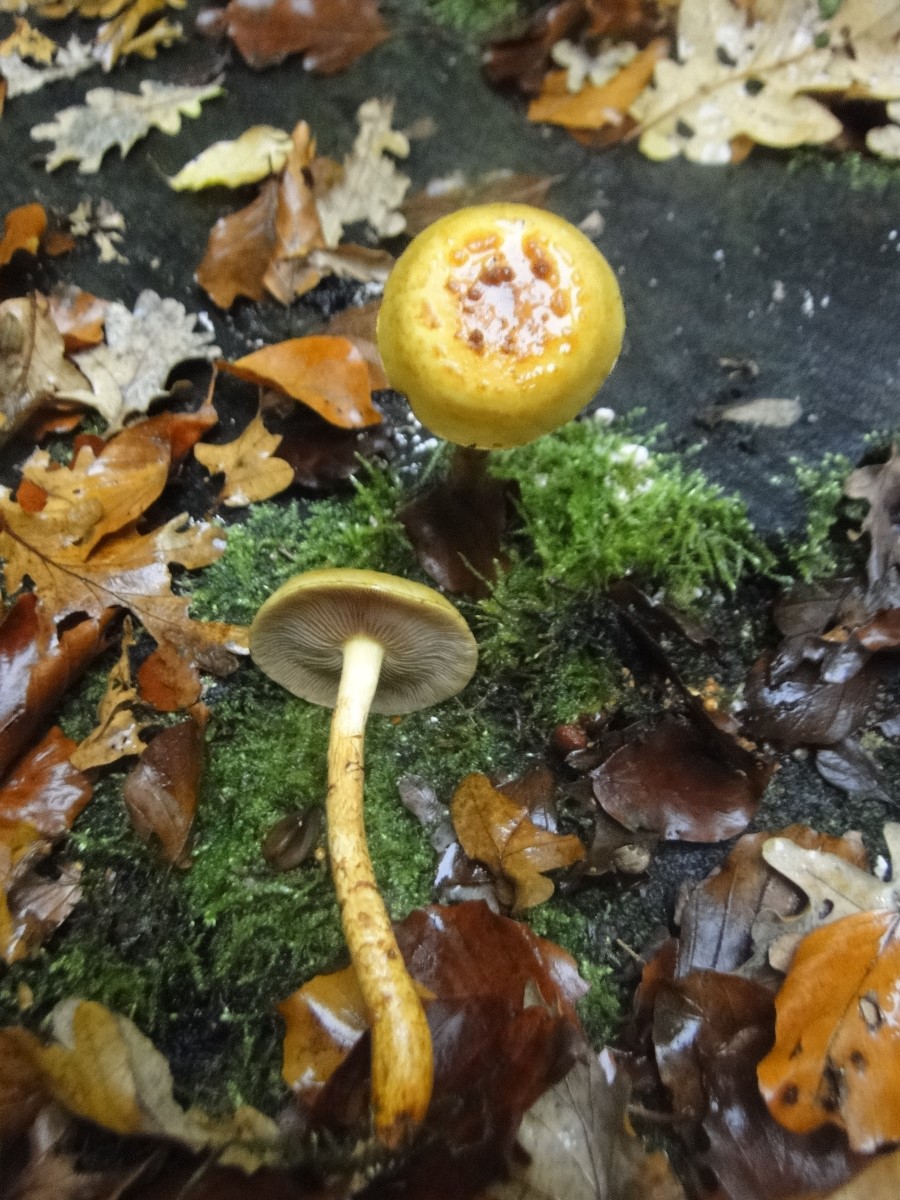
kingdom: Fungi
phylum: Basidiomycota
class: Agaricomycetes
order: Agaricales
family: Strophariaceae
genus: Pholiota
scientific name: Pholiota lucifera
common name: brandgul skælhat
